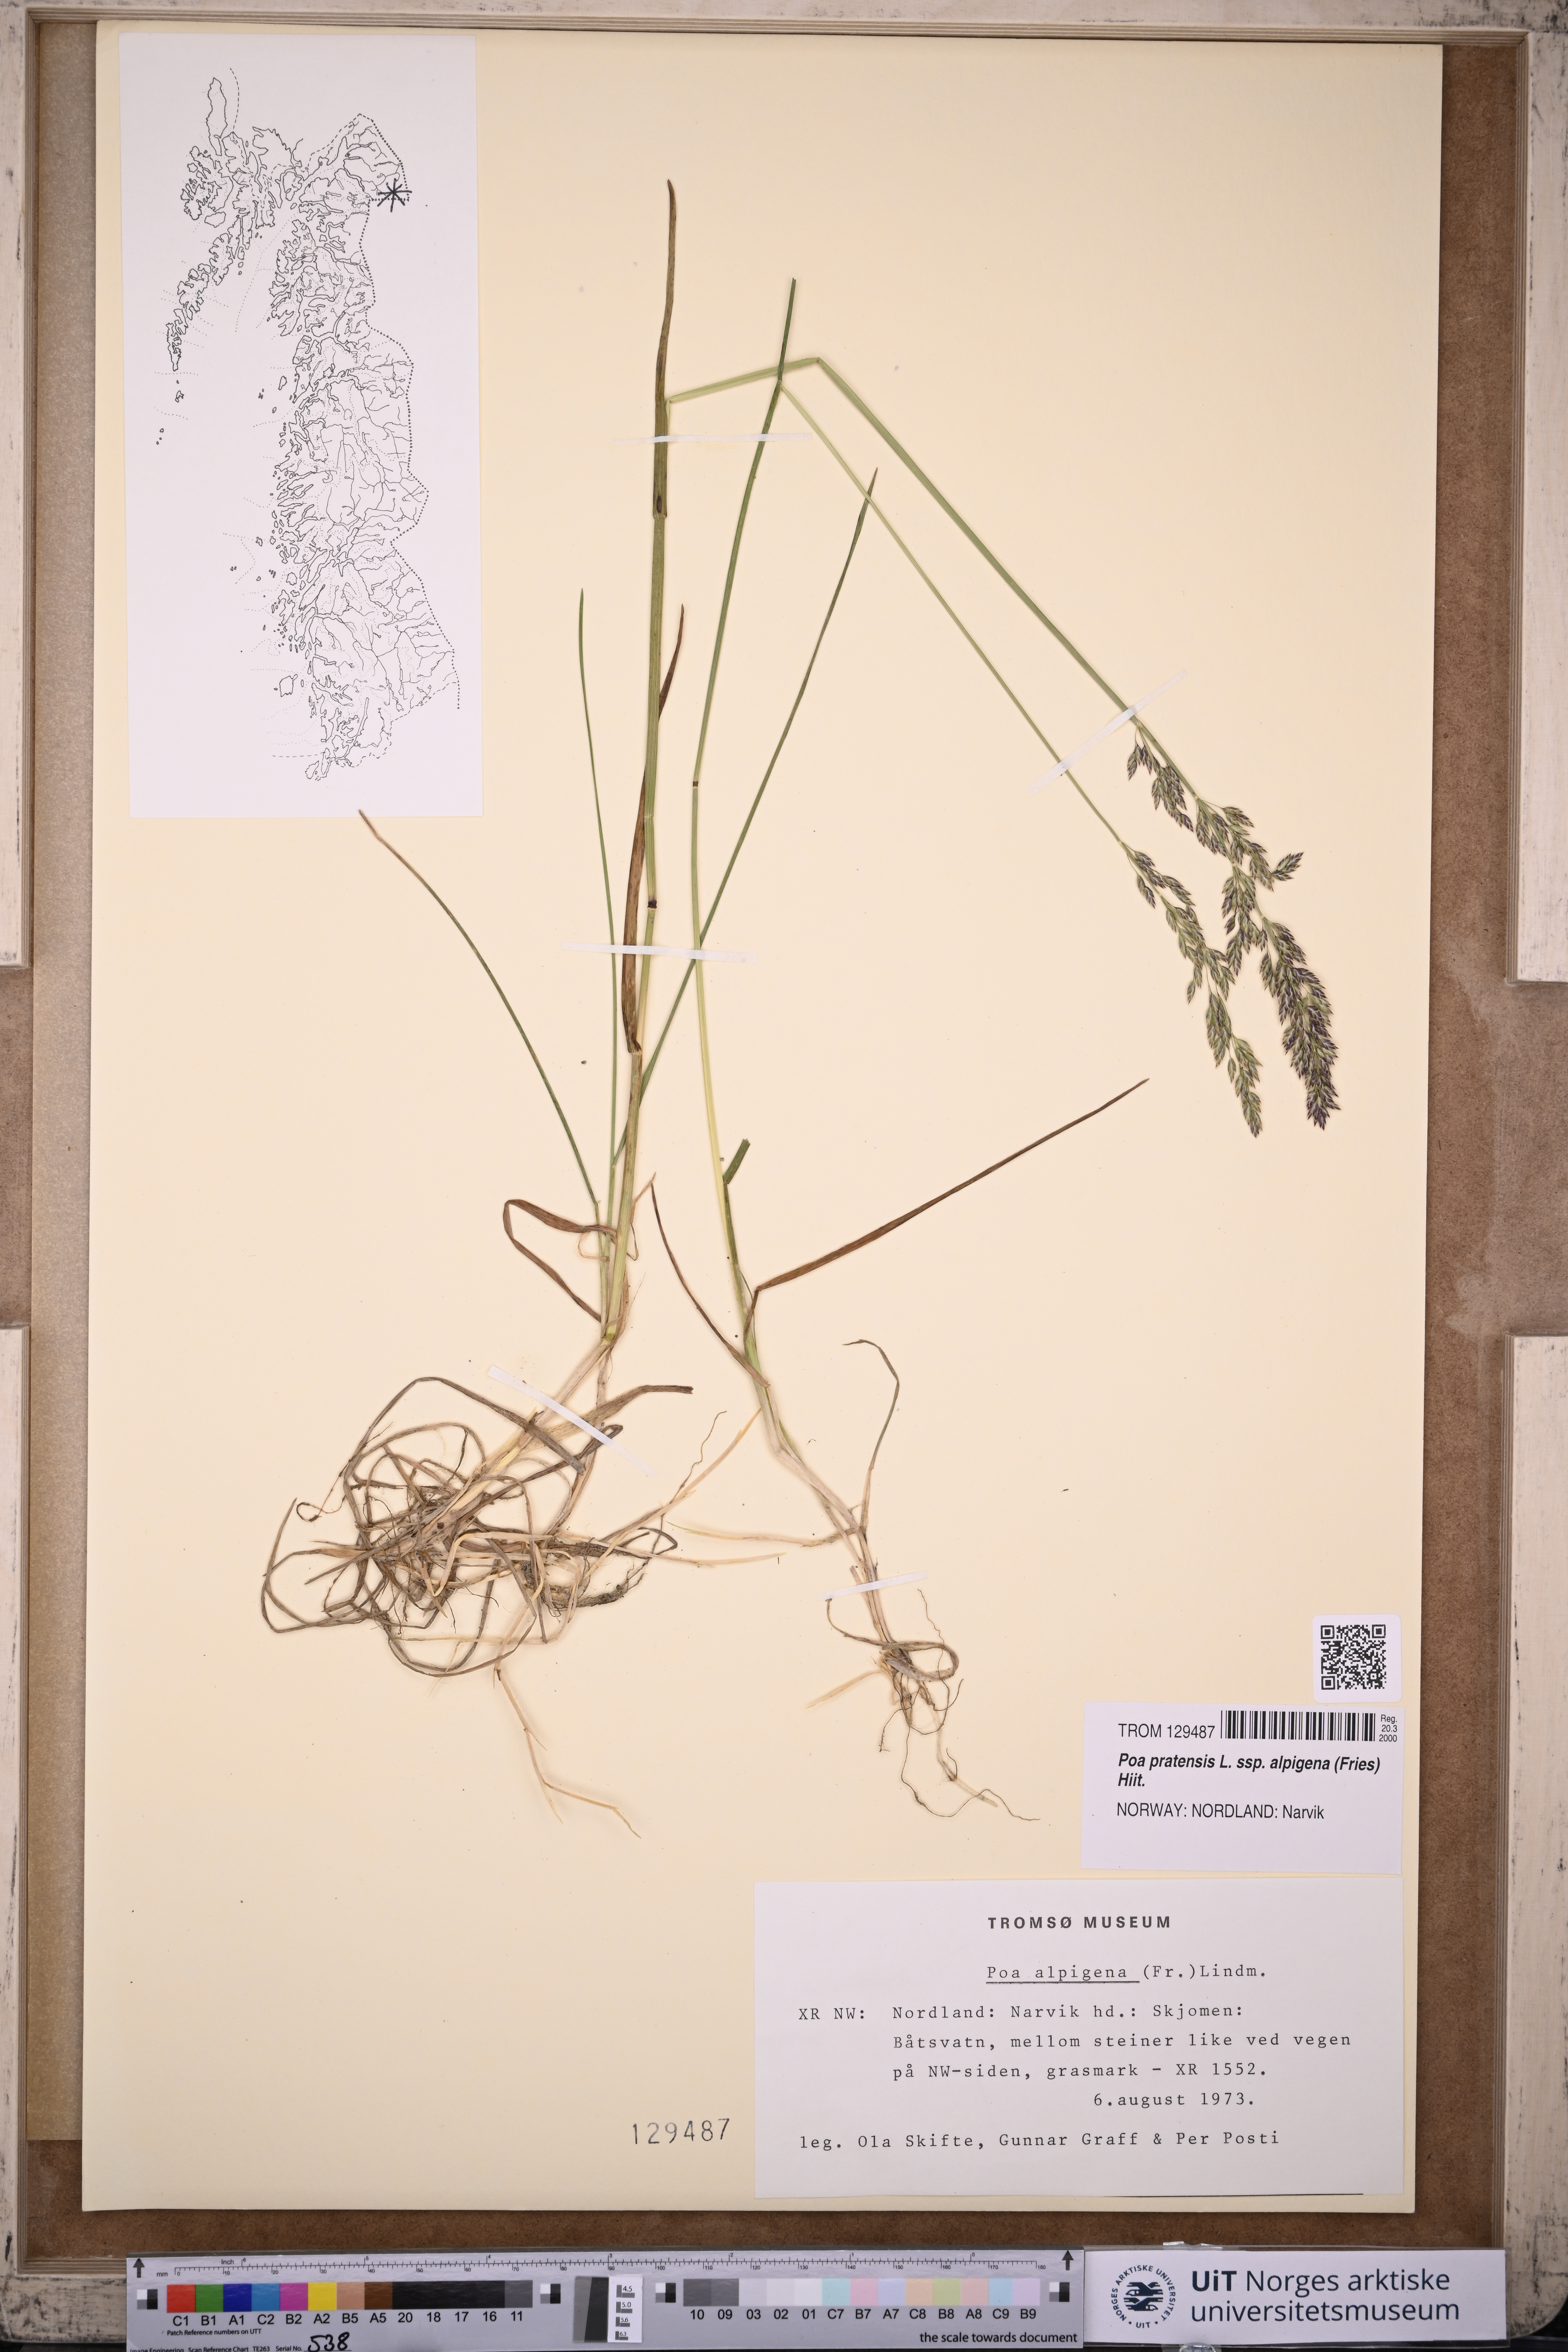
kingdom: Plantae
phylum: Tracheophyta
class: Liliopsida
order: Poales
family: Poaceae
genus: Poa
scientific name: Poa alpigena
